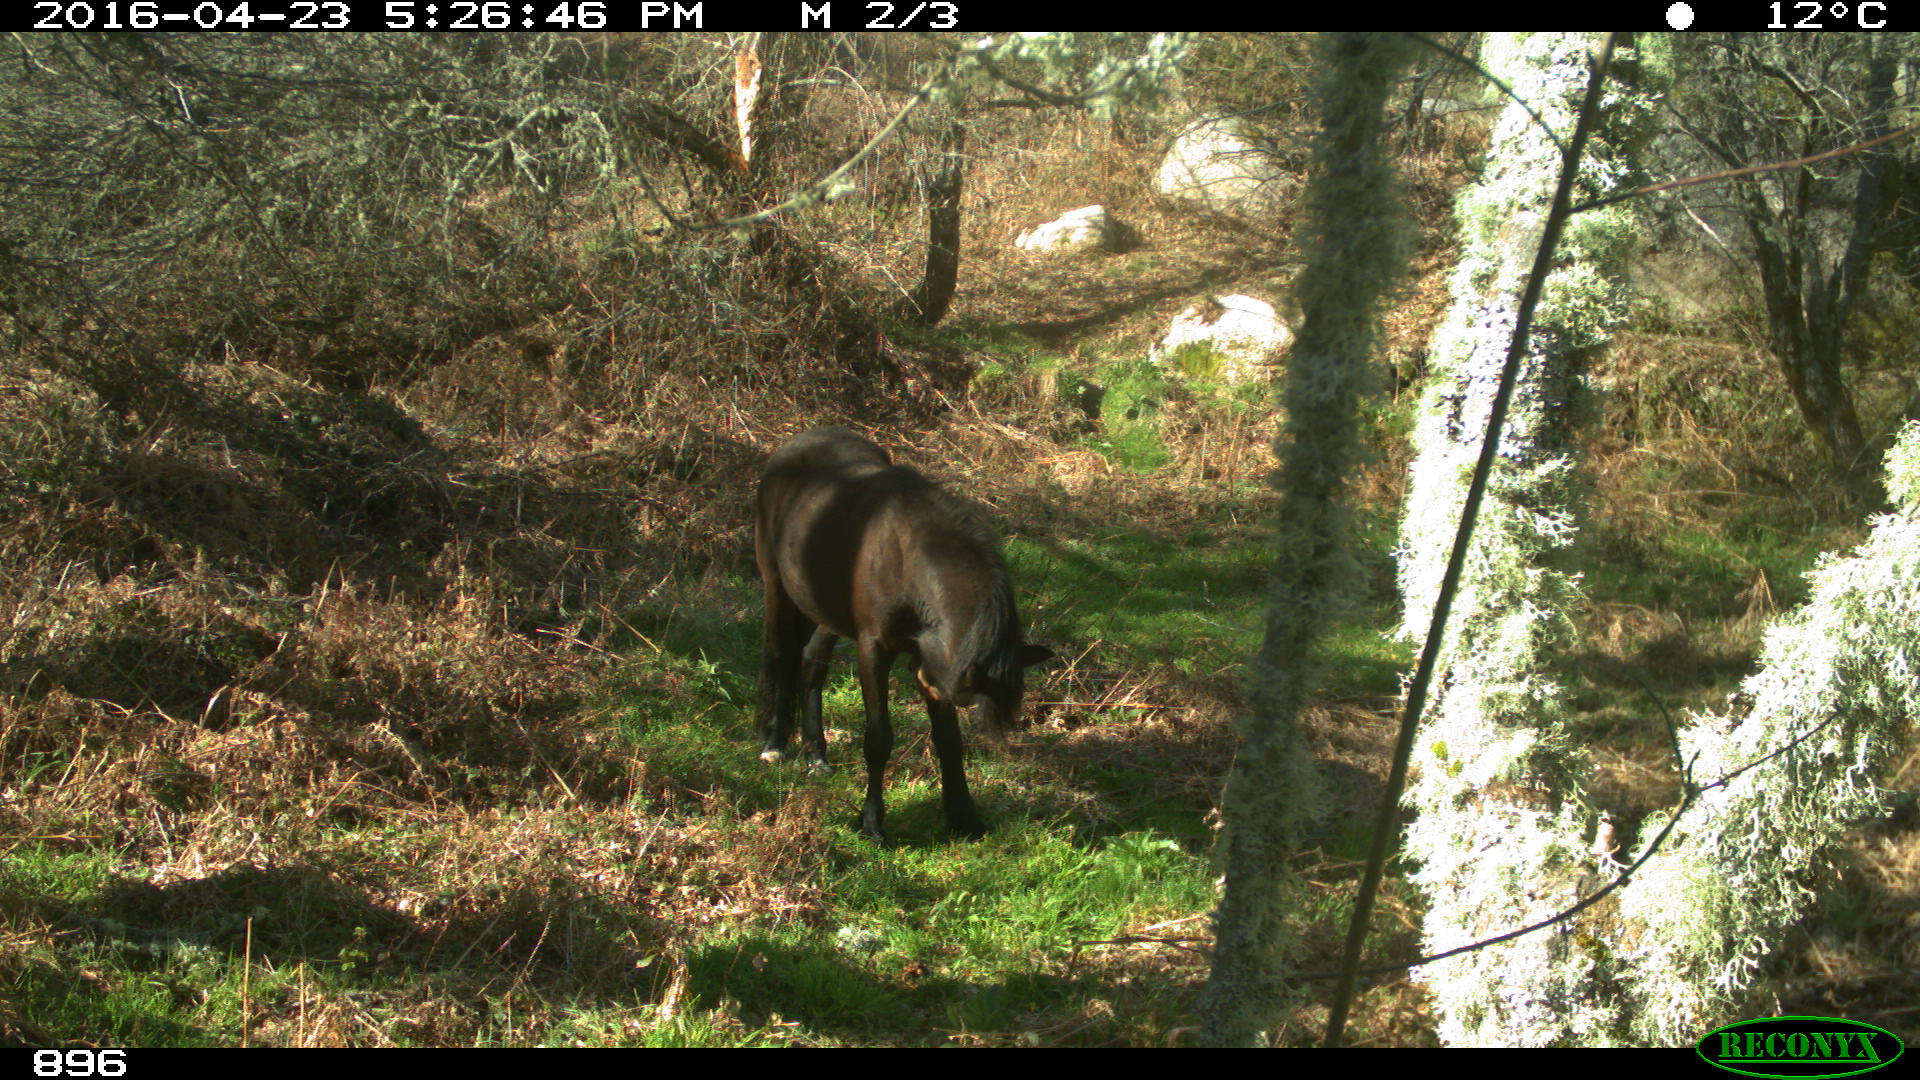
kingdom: Animalia
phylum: Chordata
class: Mammalia
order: Perissodactyla
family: Equidae
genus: Equus
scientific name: Equus caballus
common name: Horse
